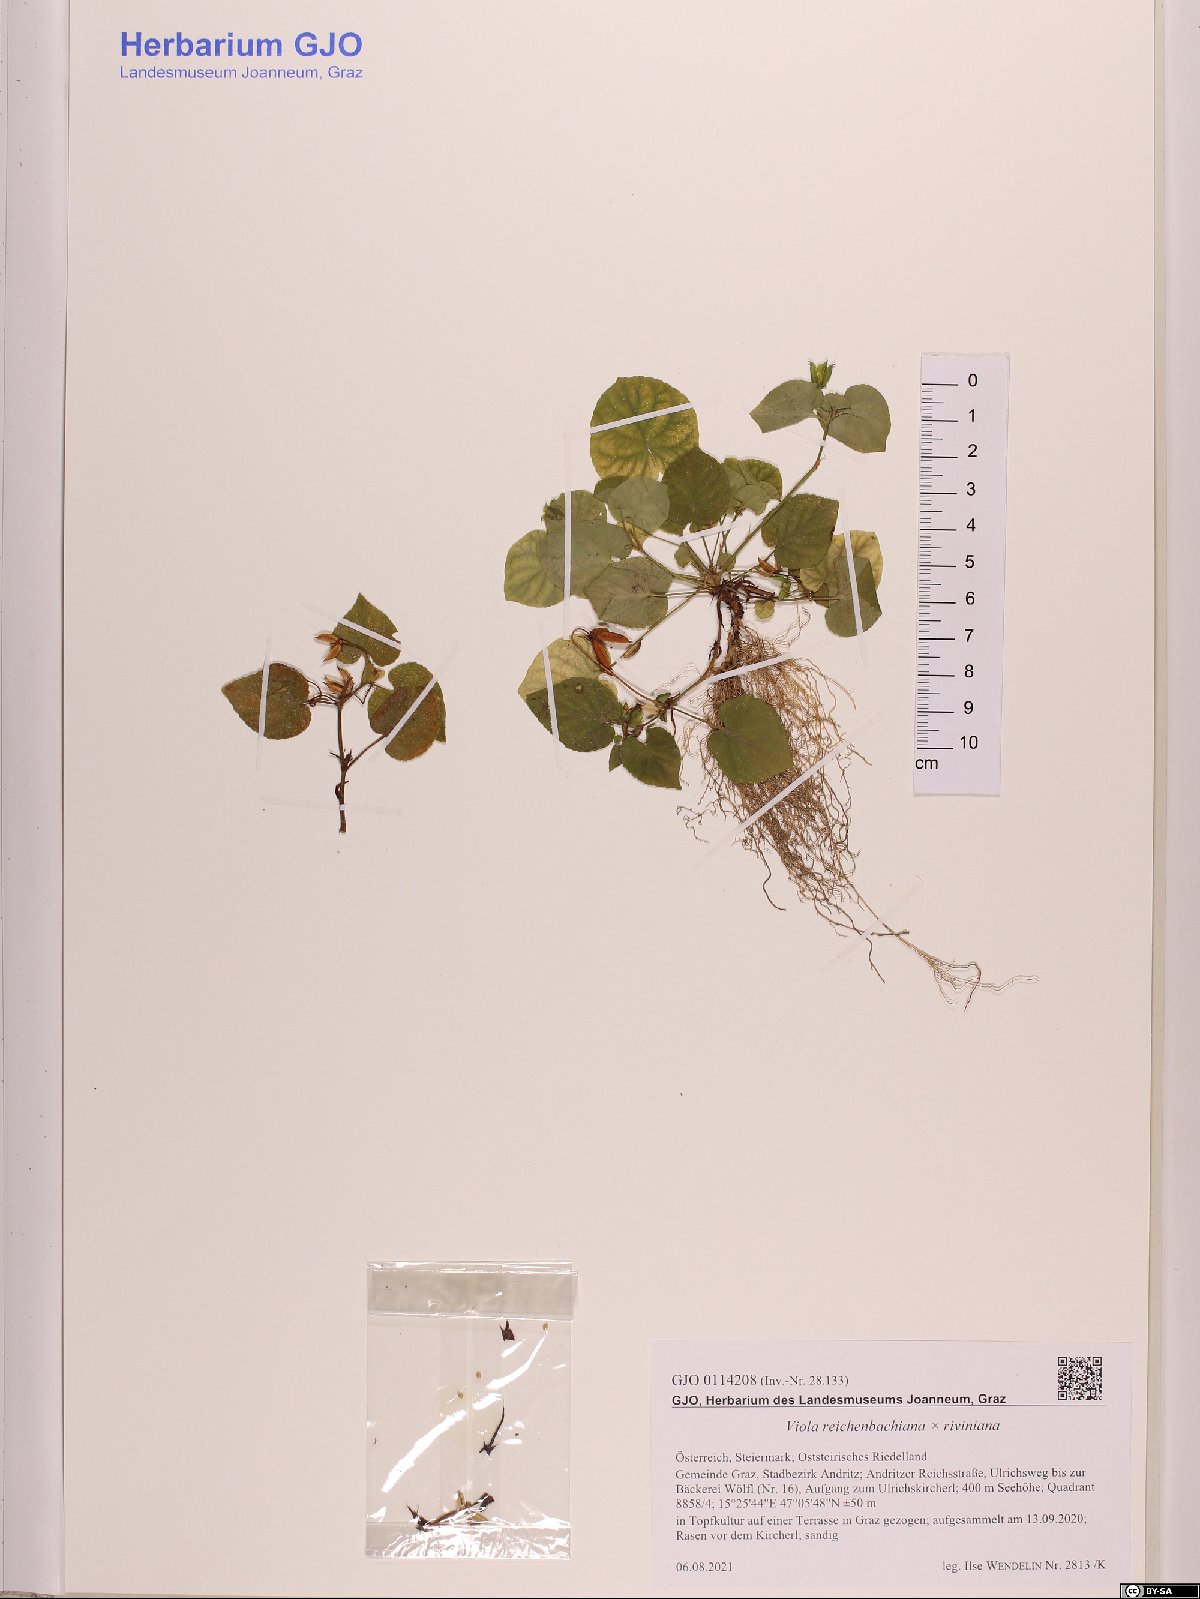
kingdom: Plantae
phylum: Tracheophyta
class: Magnoliopsida
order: Malpighiales
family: Violaceae
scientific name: Violaceae
